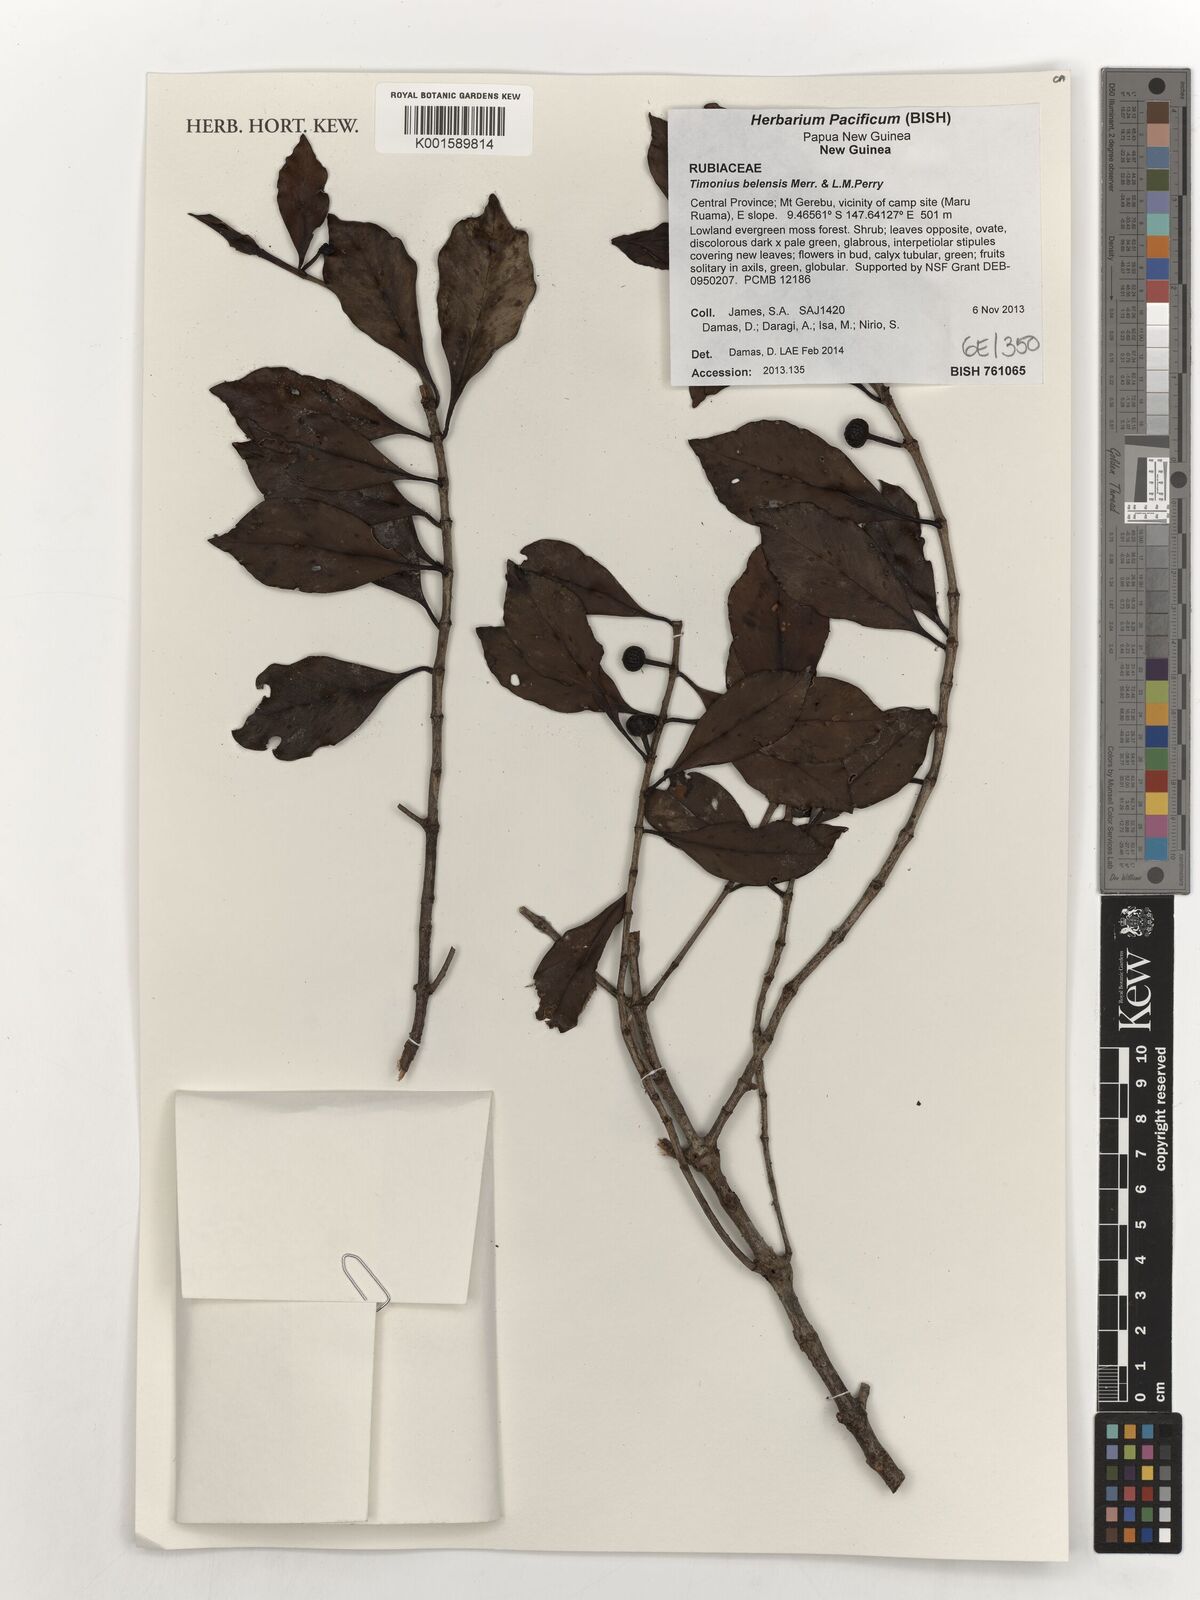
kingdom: Plantae
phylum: Tracheophyta
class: Magnoliopsida
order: Gentianales
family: Rubiaceae
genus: Timonius
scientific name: Timonius belensis
